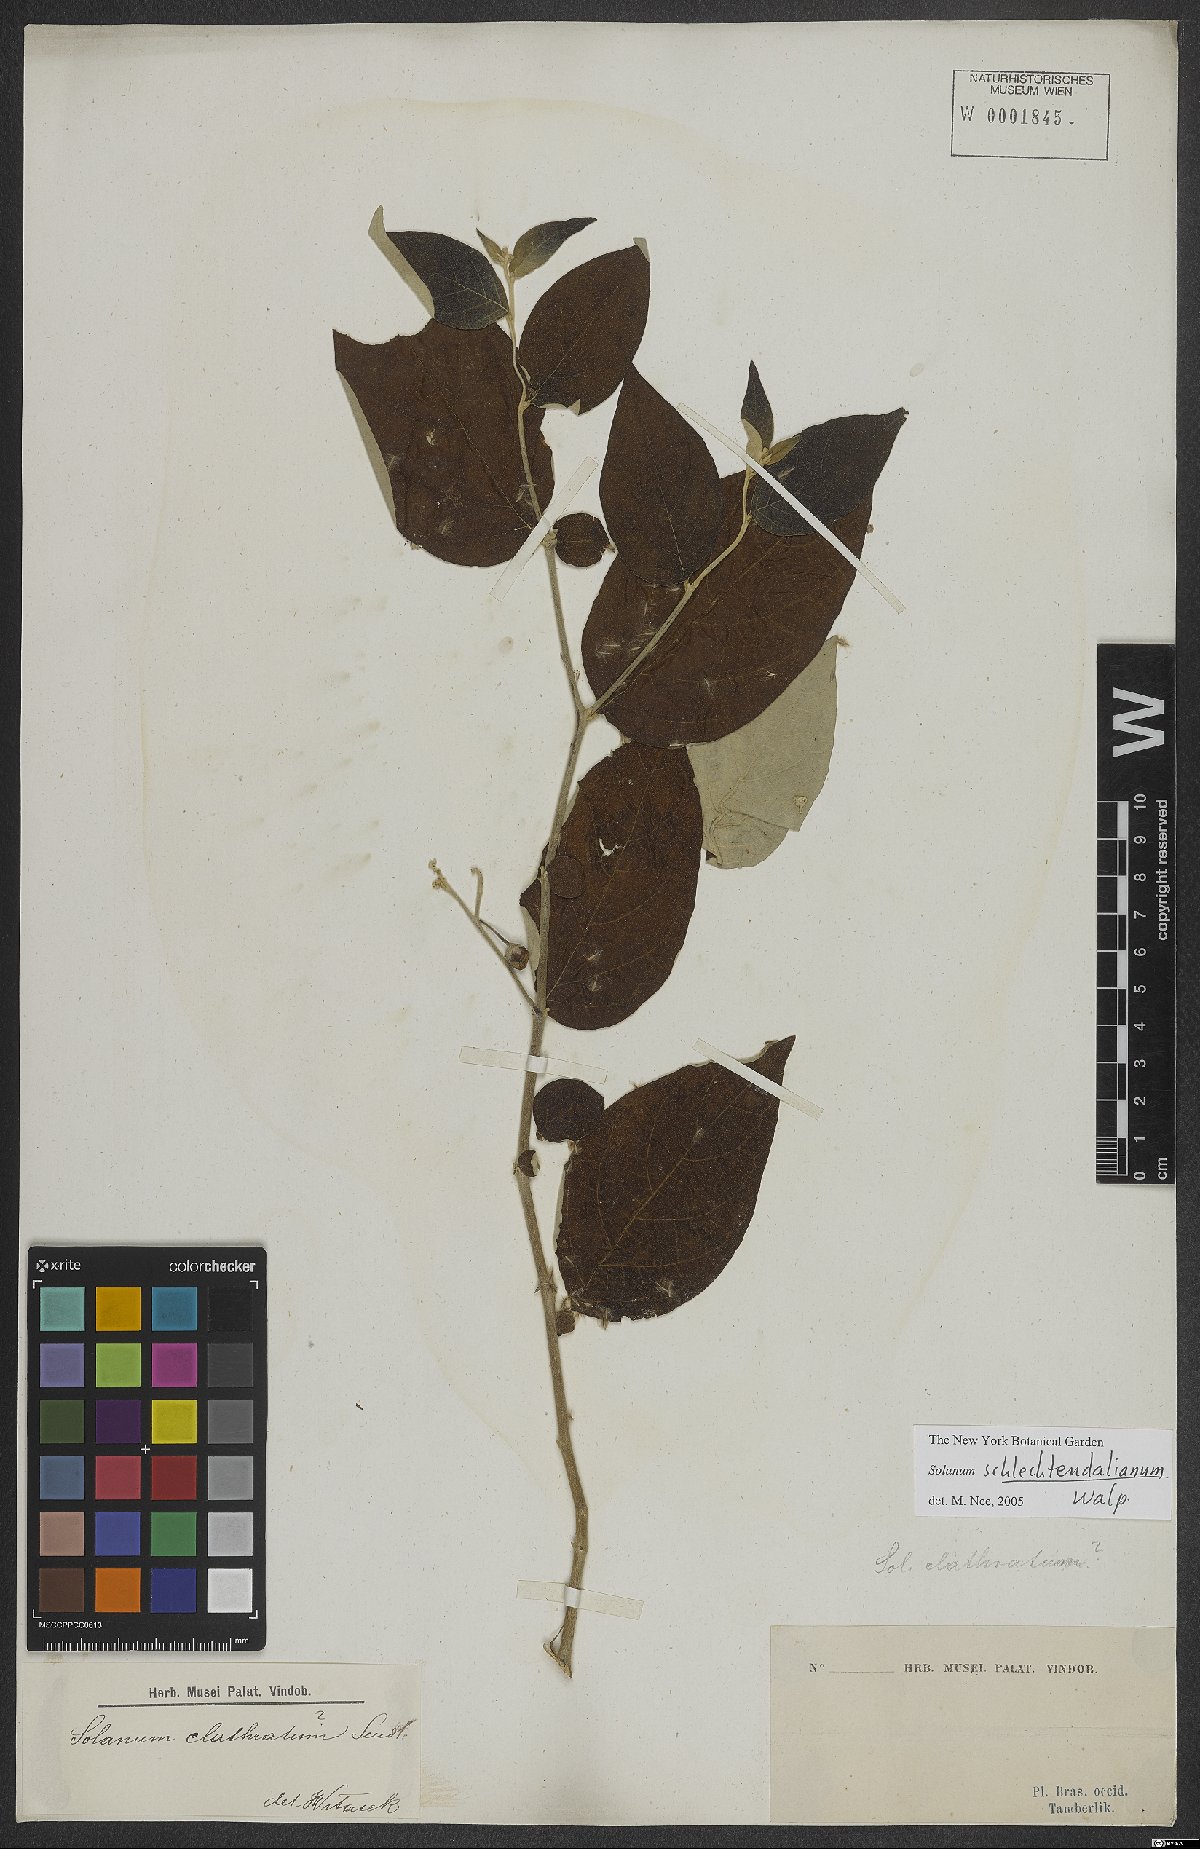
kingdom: Plantae
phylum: Tracheophyta
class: Magnoliopsida
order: Solanales
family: Solanaceae
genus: Solanum
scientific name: Solanum schlechtendalianum
